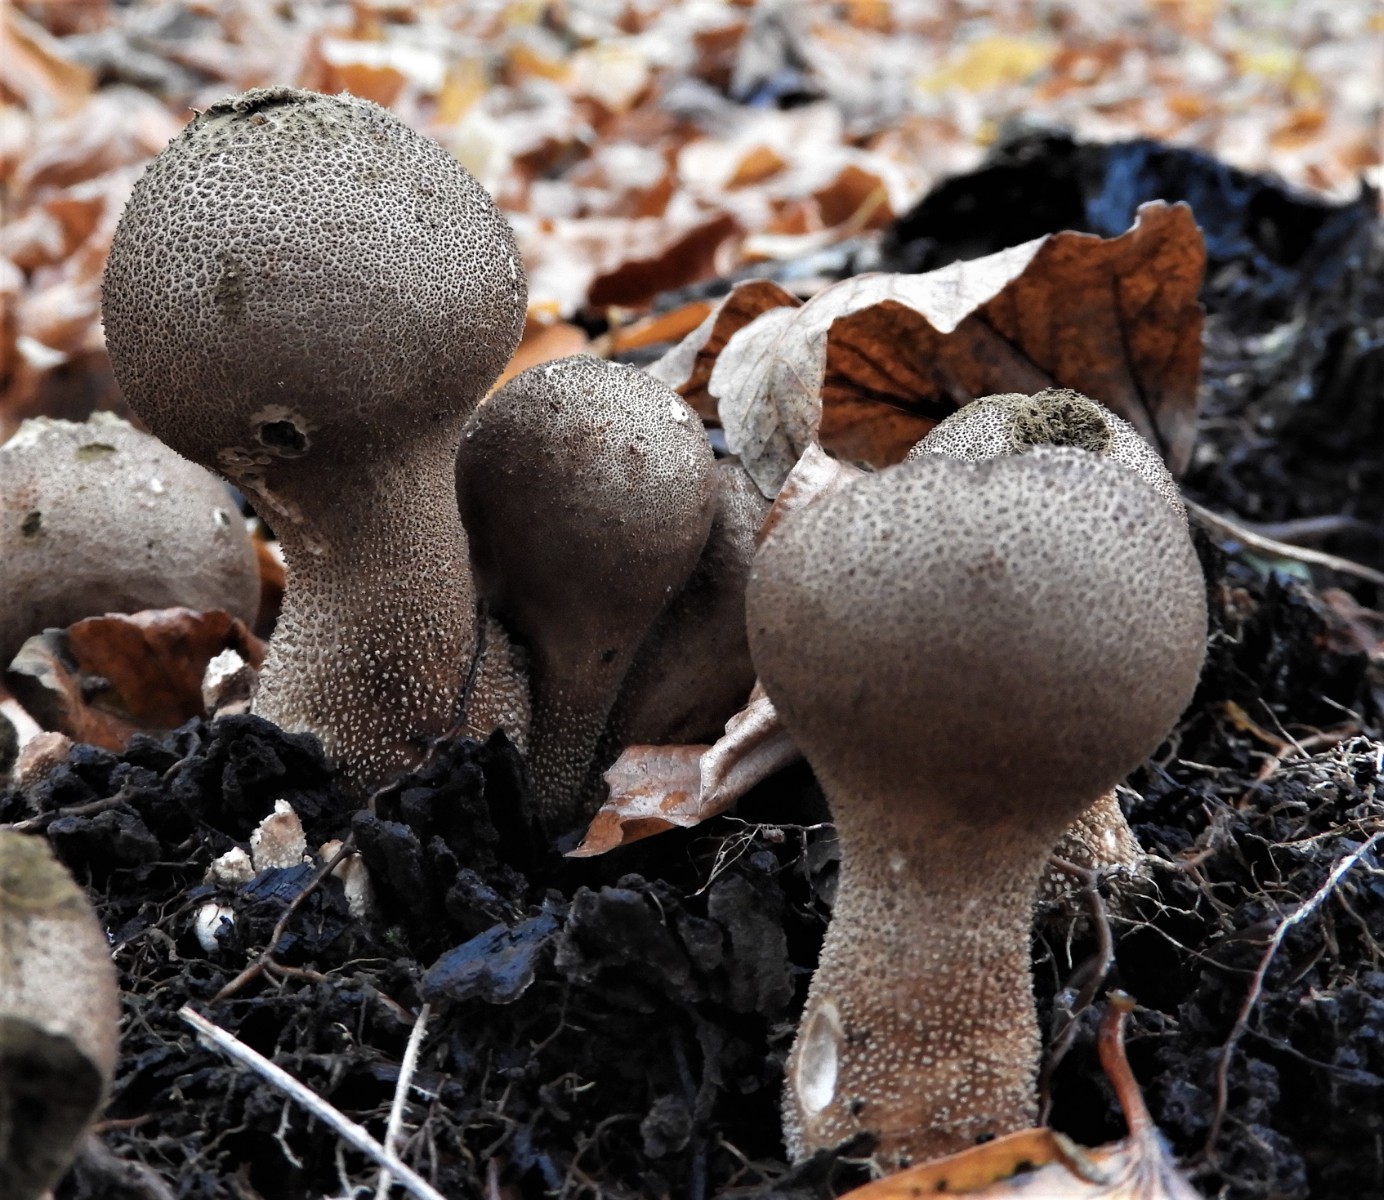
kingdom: Fungi
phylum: Basidiomycota
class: Agaricomycetes
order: Agaricales
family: Lycoperdaceae
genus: Lycoperdon
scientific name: Lycoperdon excipuliforme
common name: højstokket støvbold
